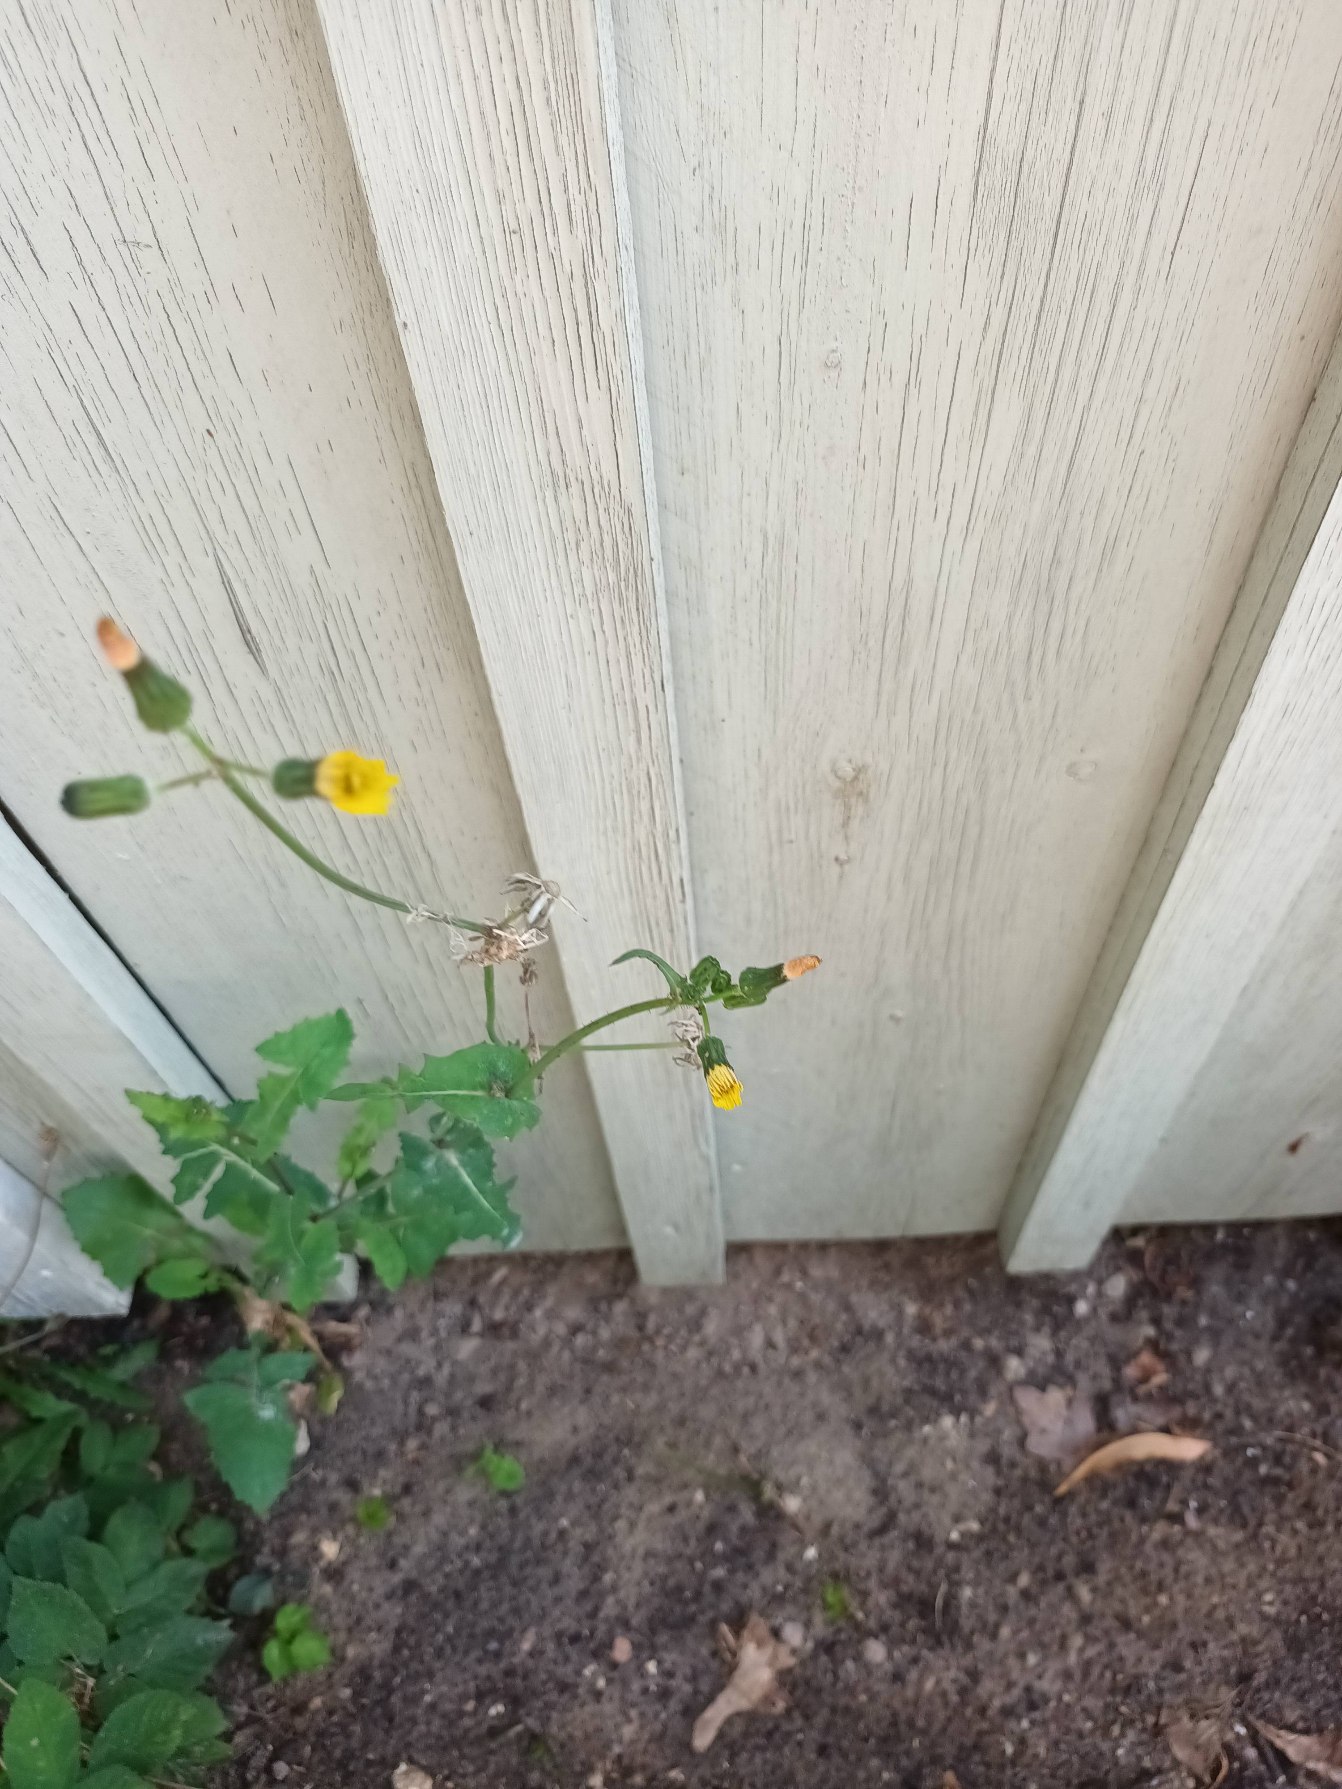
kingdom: Plantae
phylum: Tracheophyta
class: Magnoliopsida
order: Asterales
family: Asteraceae
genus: Sonchus
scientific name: Sonchus oleraceus
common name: Almindelig svinemælk
